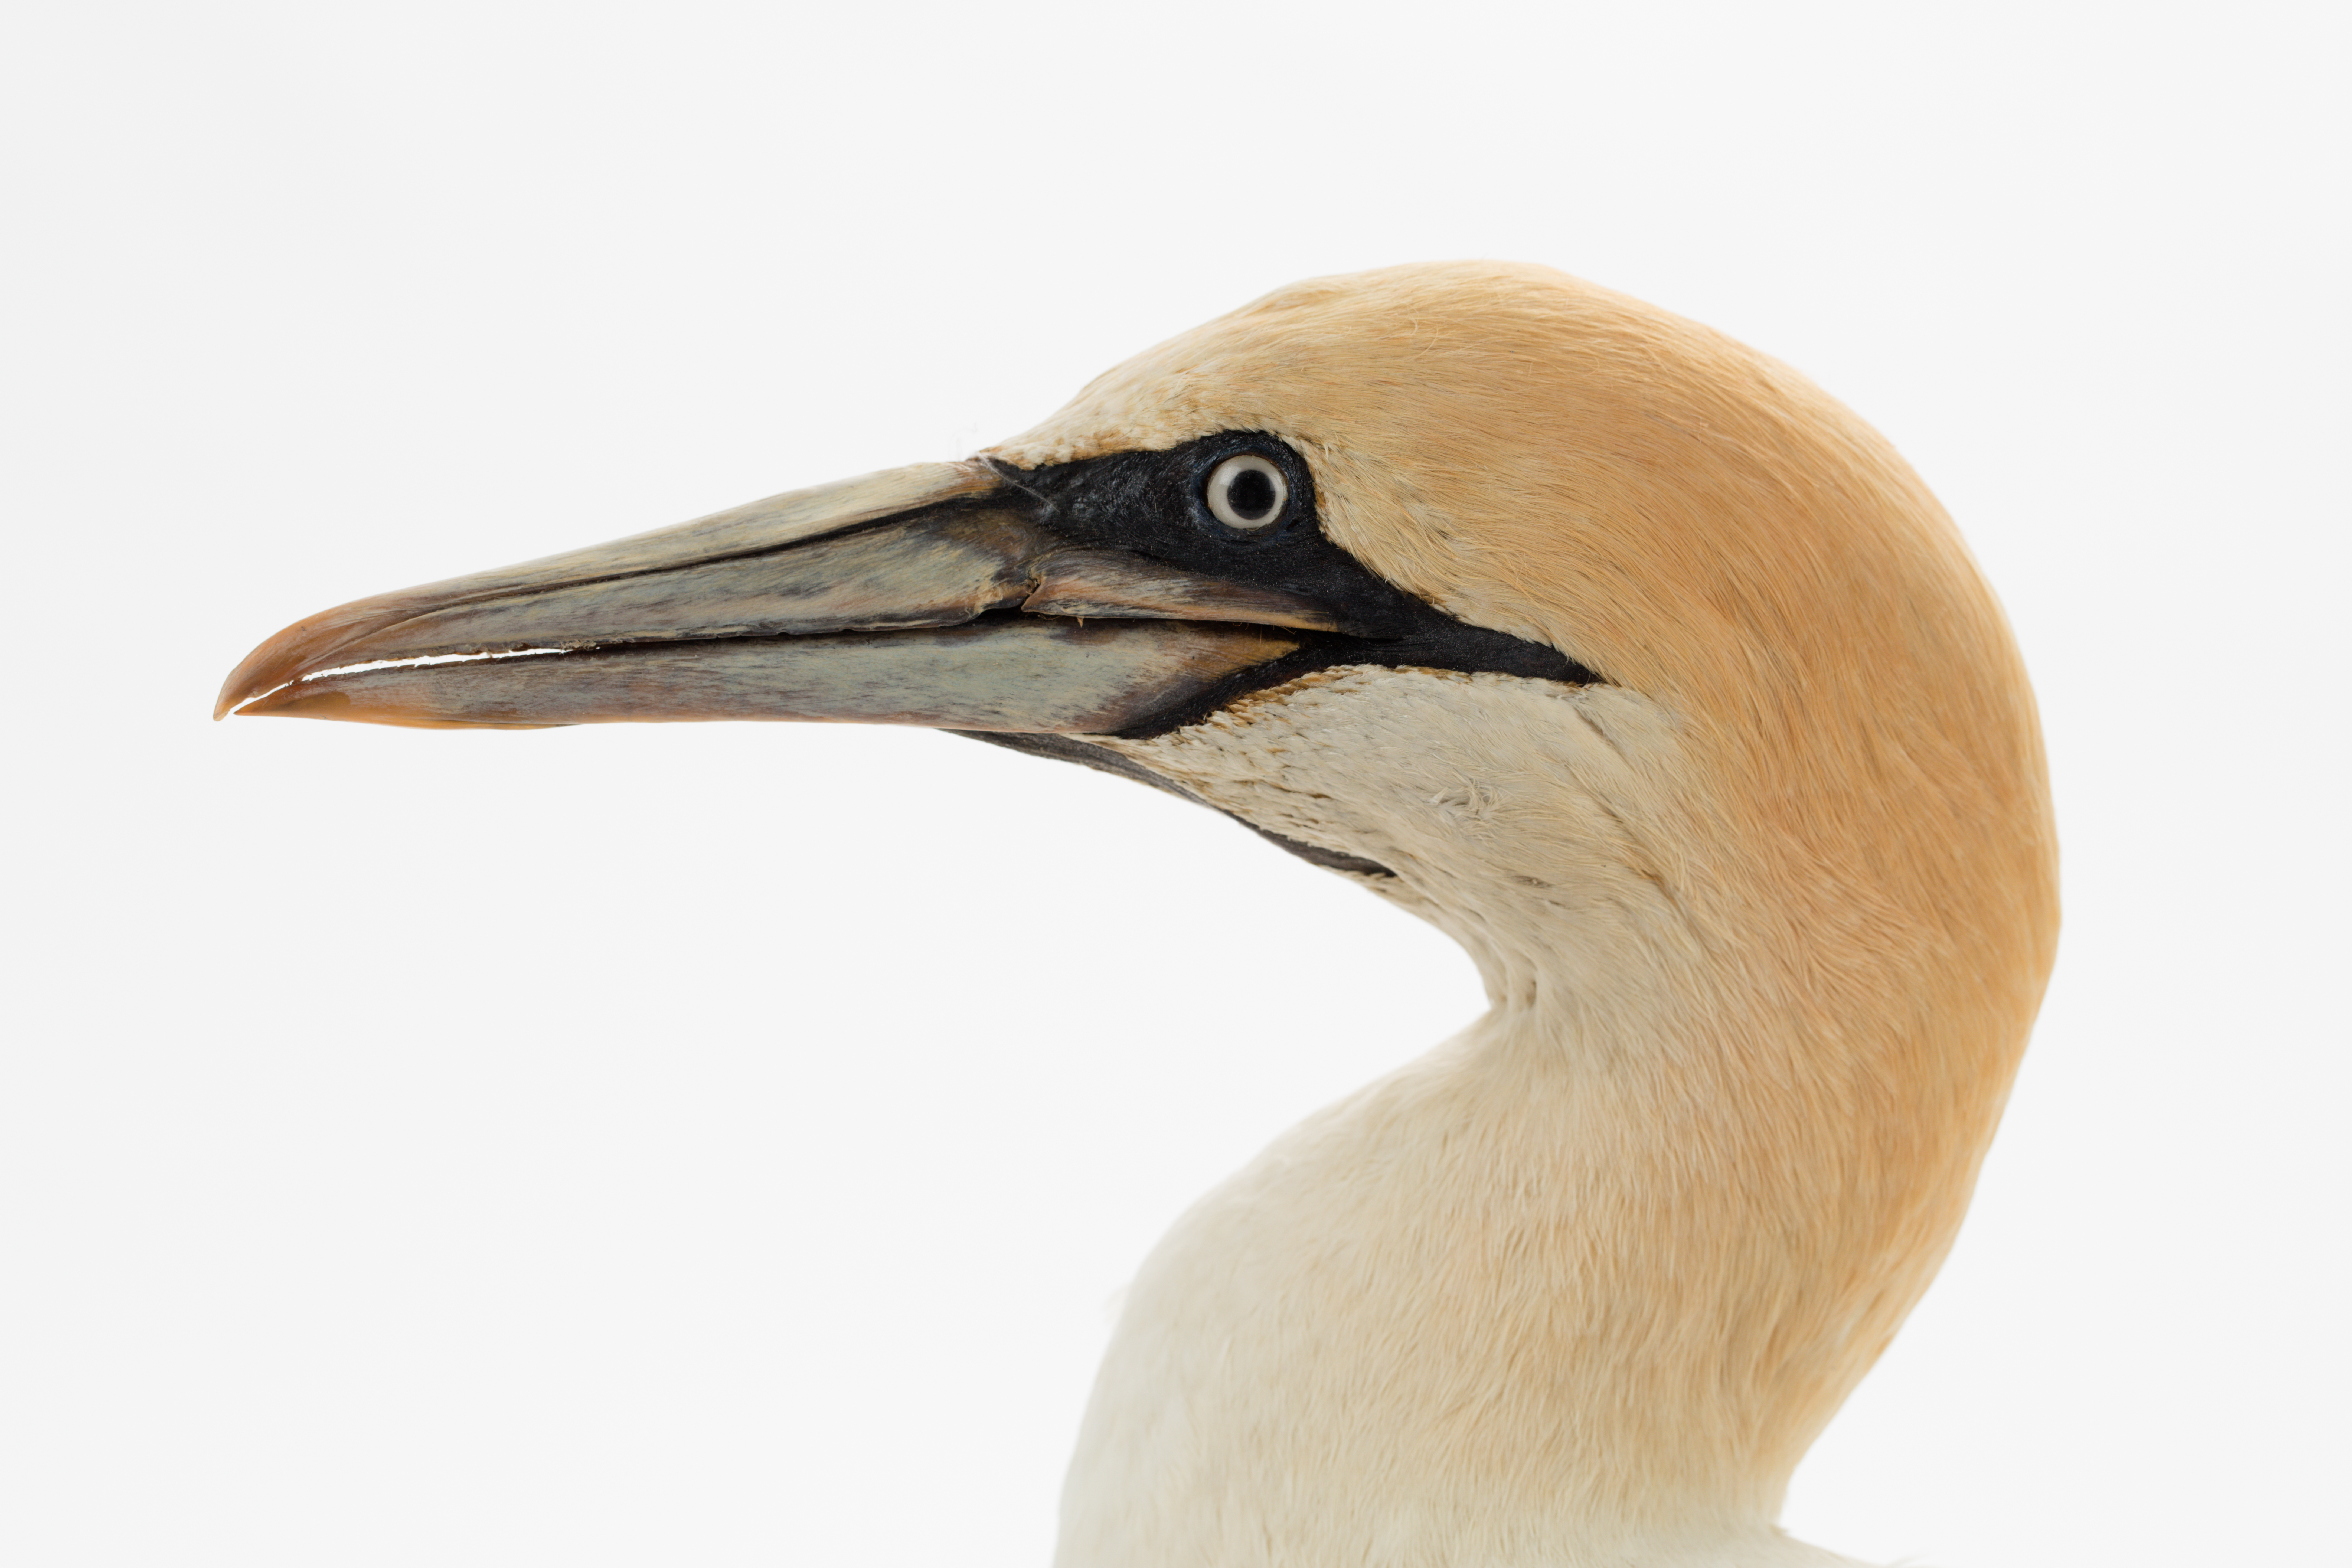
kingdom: Animalia
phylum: Chordata
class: Aves
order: Suliformes
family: Sulidae
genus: Morus
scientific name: Morus serrator
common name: Australasian gannet
